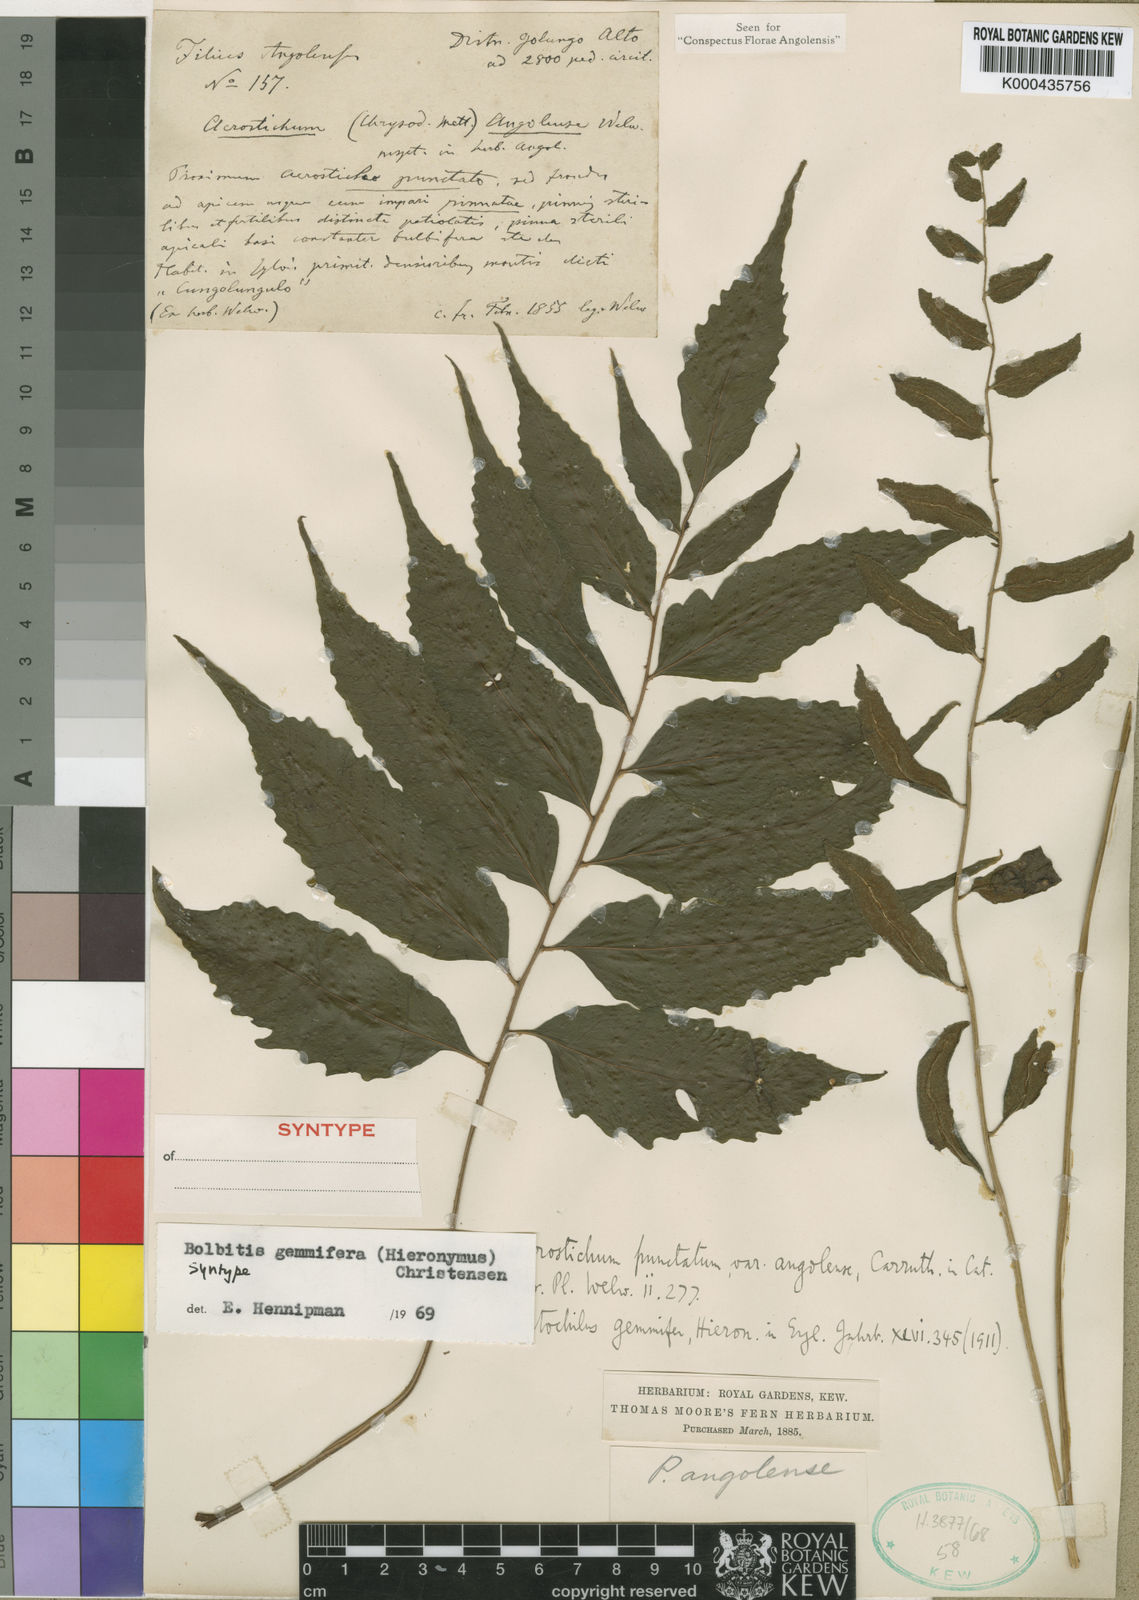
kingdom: Plantae
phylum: Tracheophyta
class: Polypodiopsida
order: Polypodiales
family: Dryopteridaceae
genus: Bolbitis
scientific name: Bolbitis
